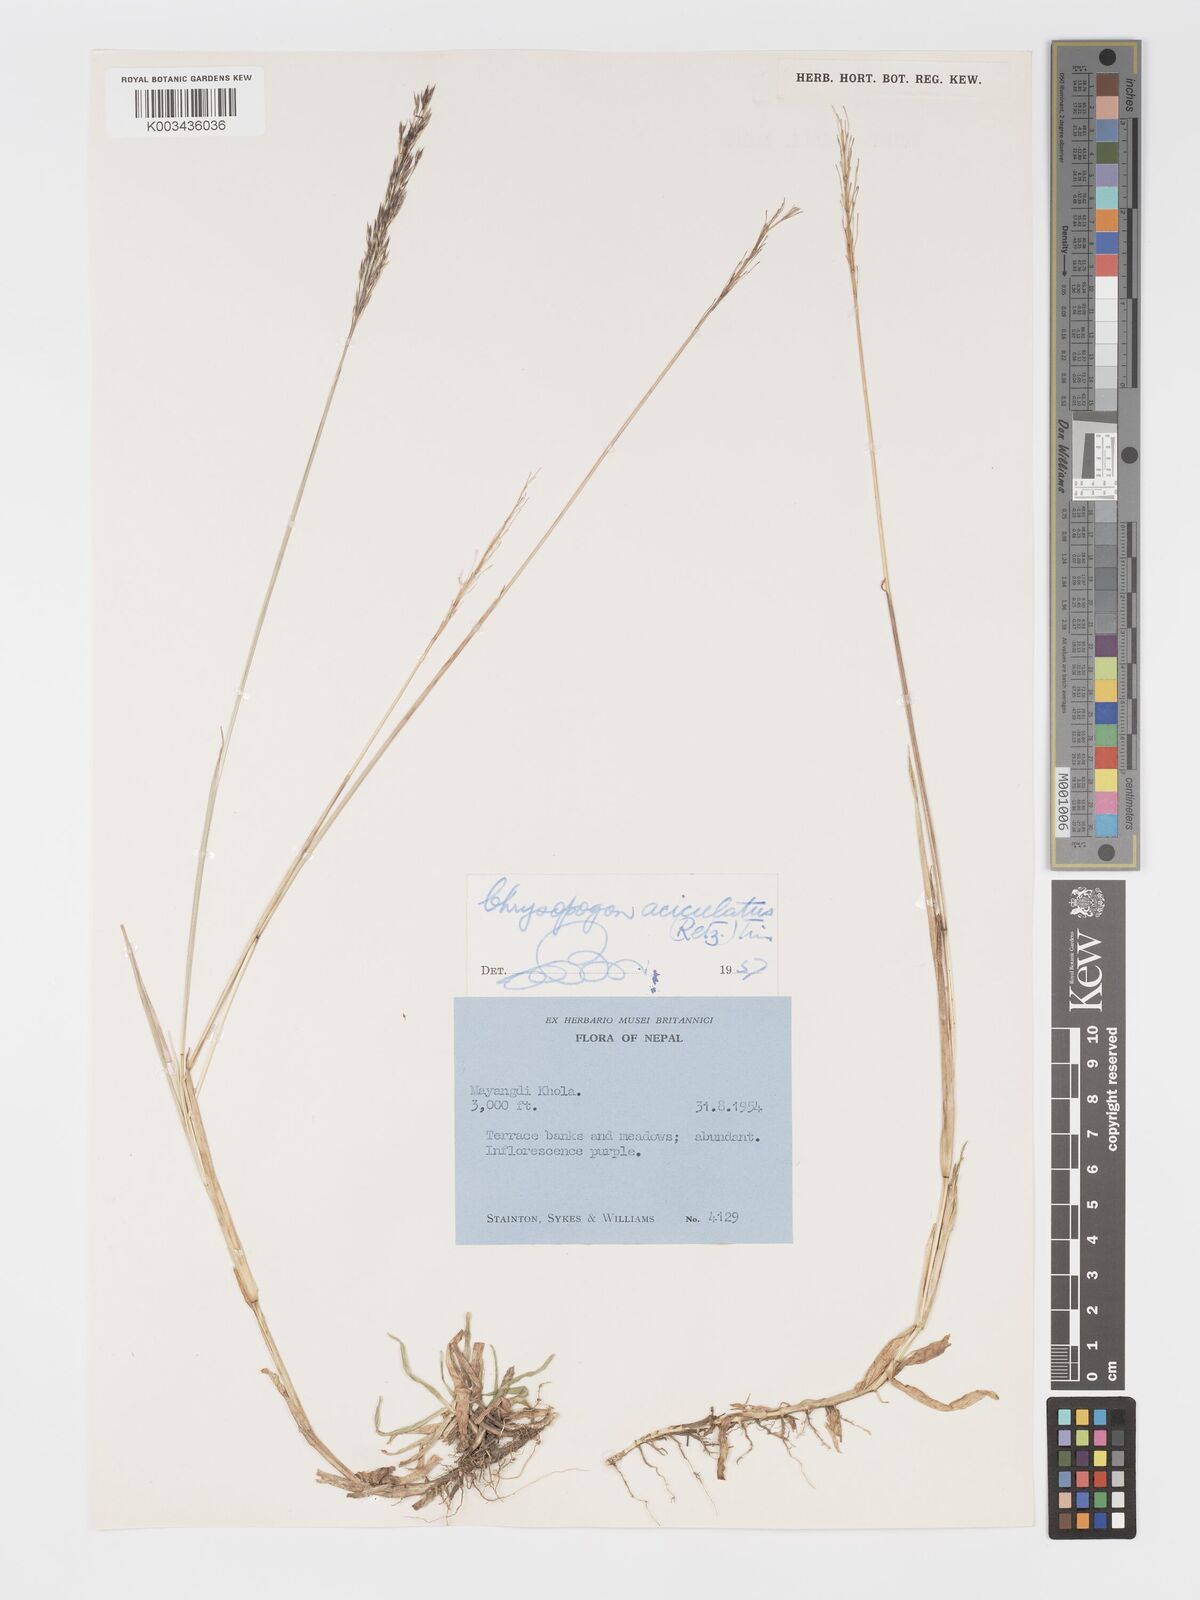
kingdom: Plantae
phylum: Tracheophyta
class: Liliopsida
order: Poales
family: Poaceae
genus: Chrysopogon
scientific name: Chrysopogon aciculatus
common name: Pilipiliula
